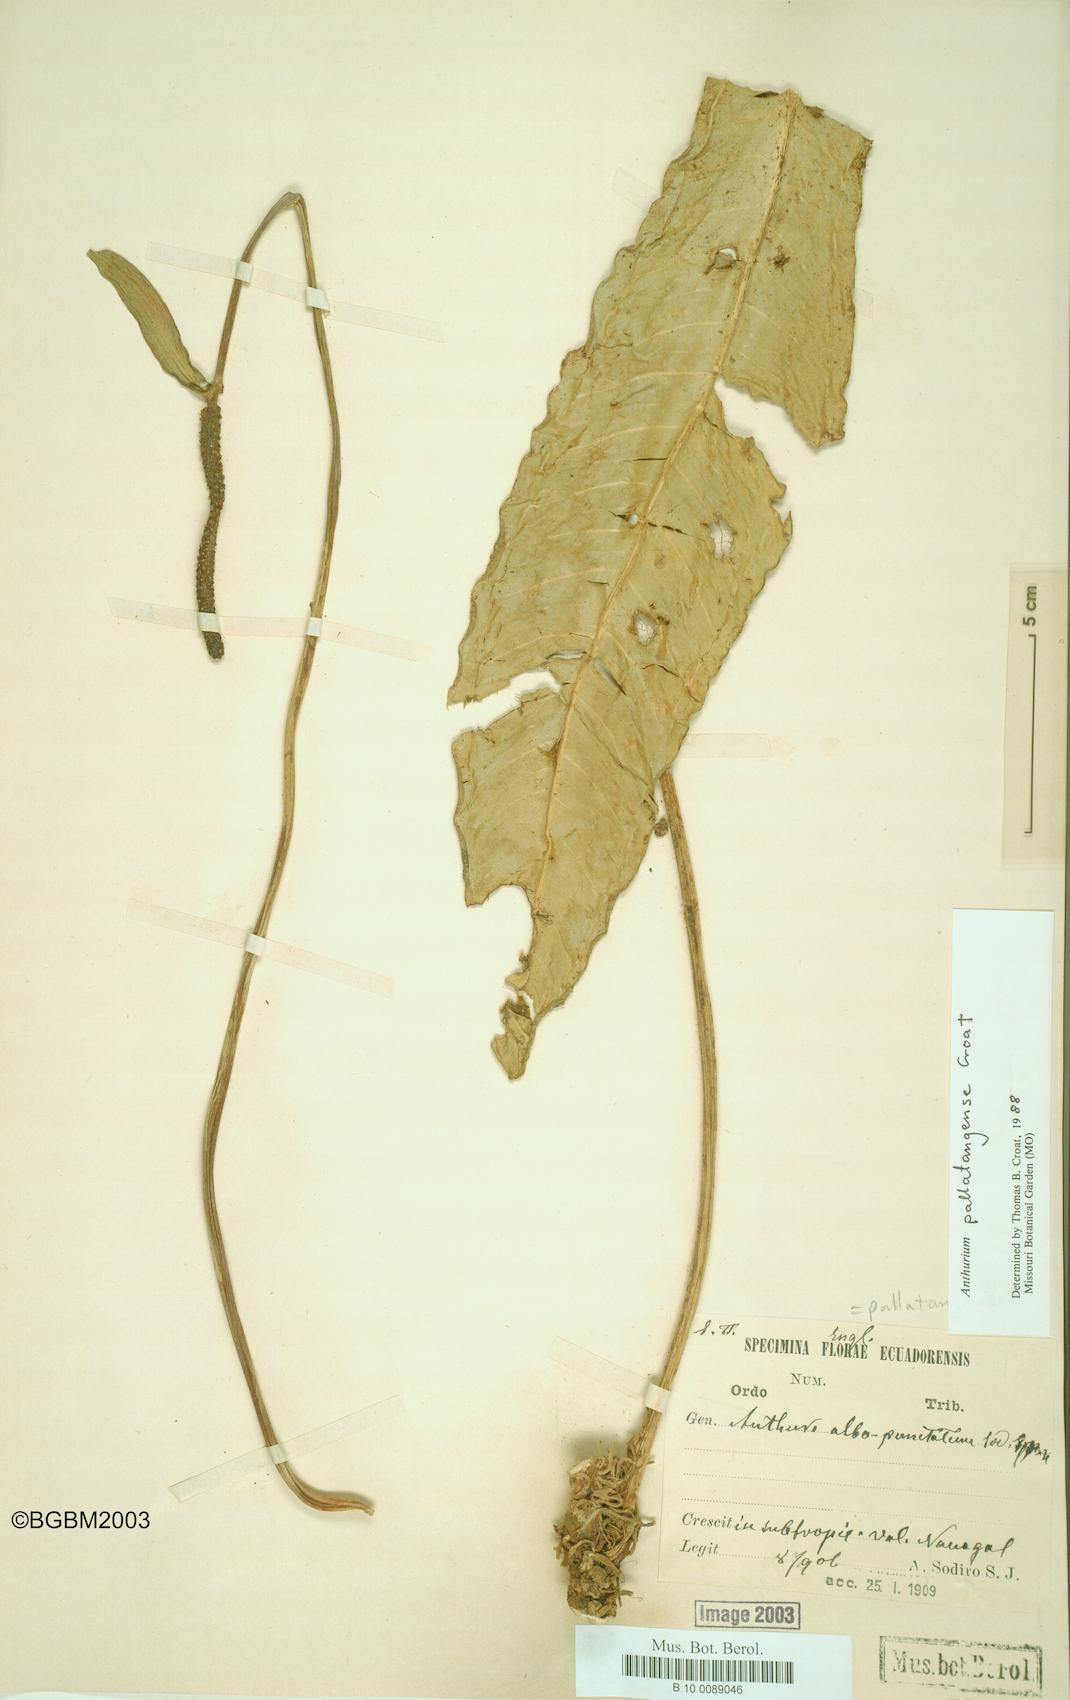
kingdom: Plantae
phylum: Tracheophyta
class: Liliopsida
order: Alismatales
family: Araceae
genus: Anthurium
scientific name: Anthurium pallatangense
